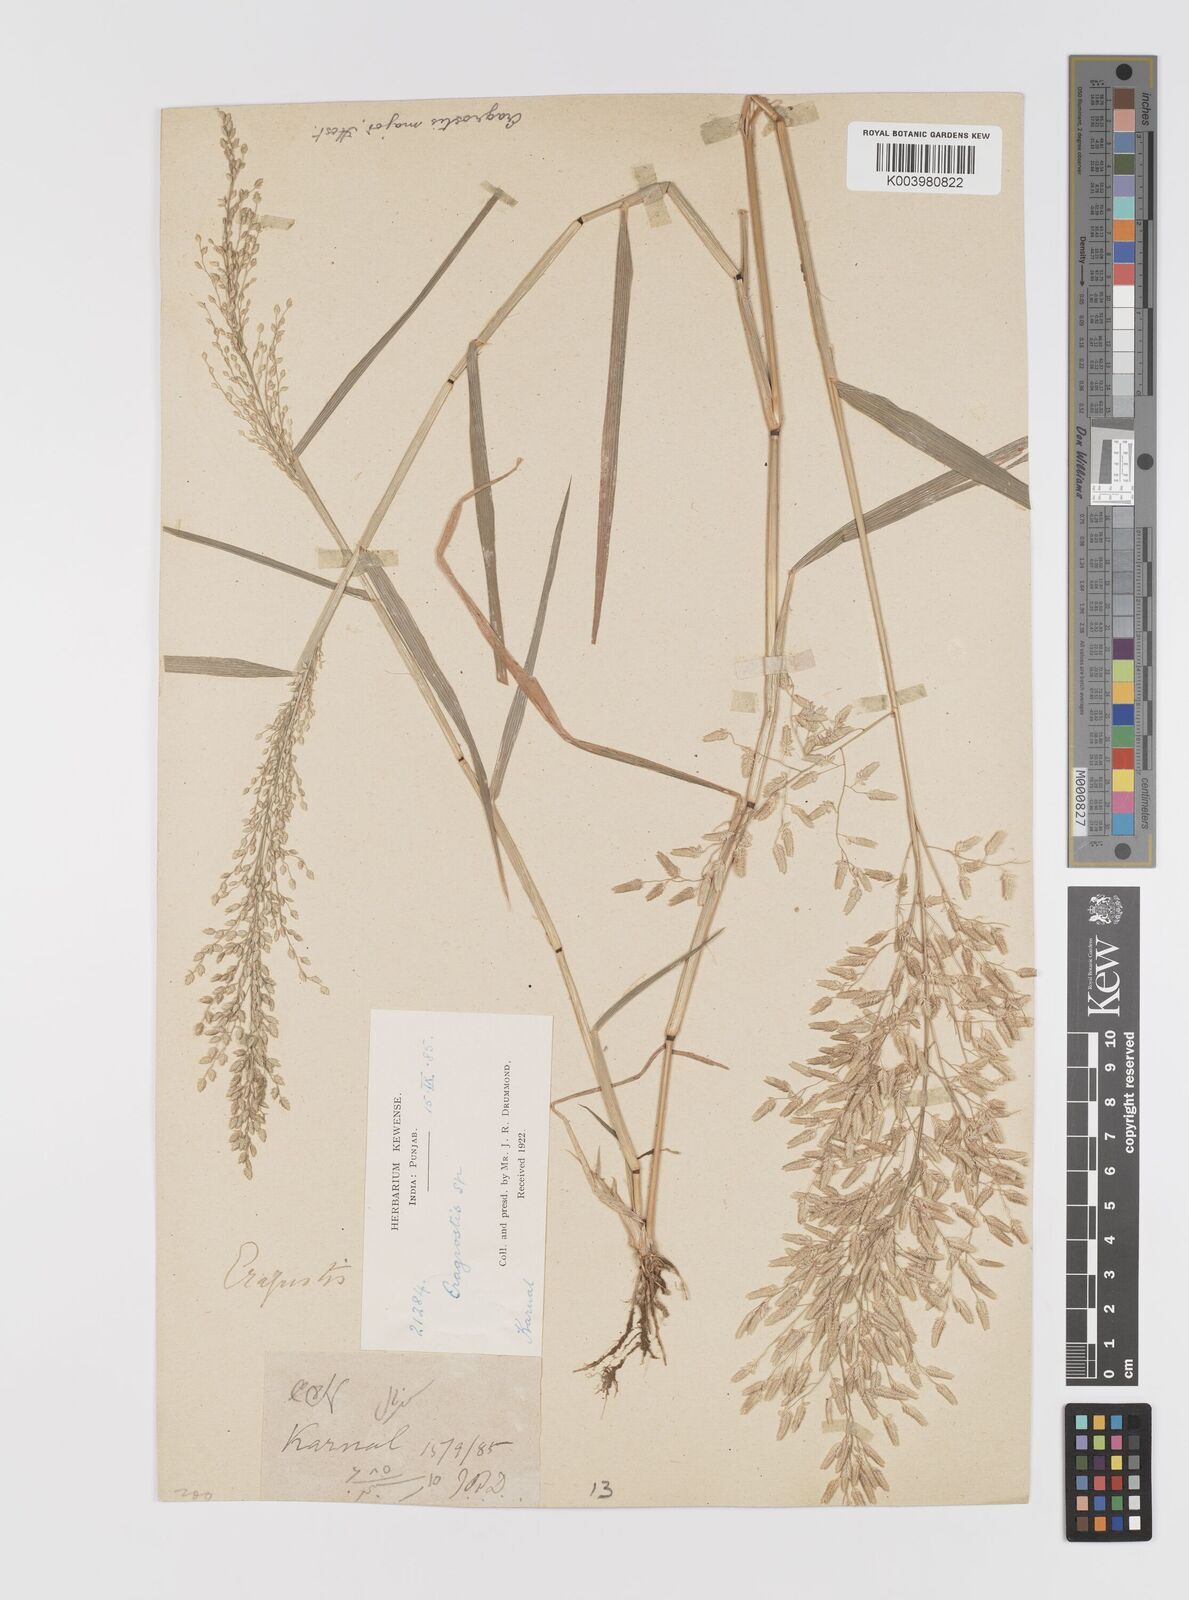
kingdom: Plantae
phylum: Tracheophyta
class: Liliopsida
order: Poales
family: Poaceae
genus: Eragrostis
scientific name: Eragrostis cilianensis
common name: Stinkgrass
